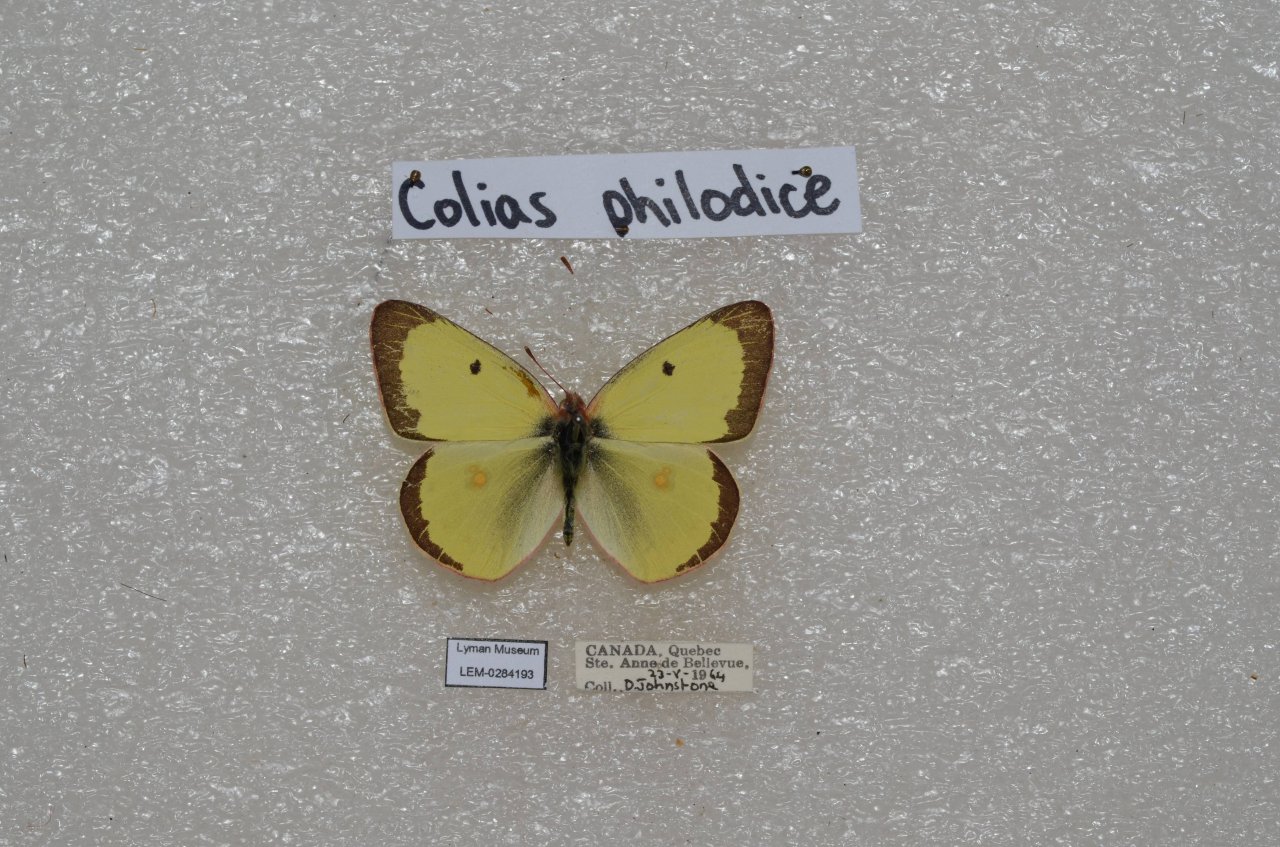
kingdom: Animalia
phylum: Arthropoda
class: Insecta
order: Lepidoptera
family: Pieridae
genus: Colias
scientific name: Colias philodice
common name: Clouded Sulphur
